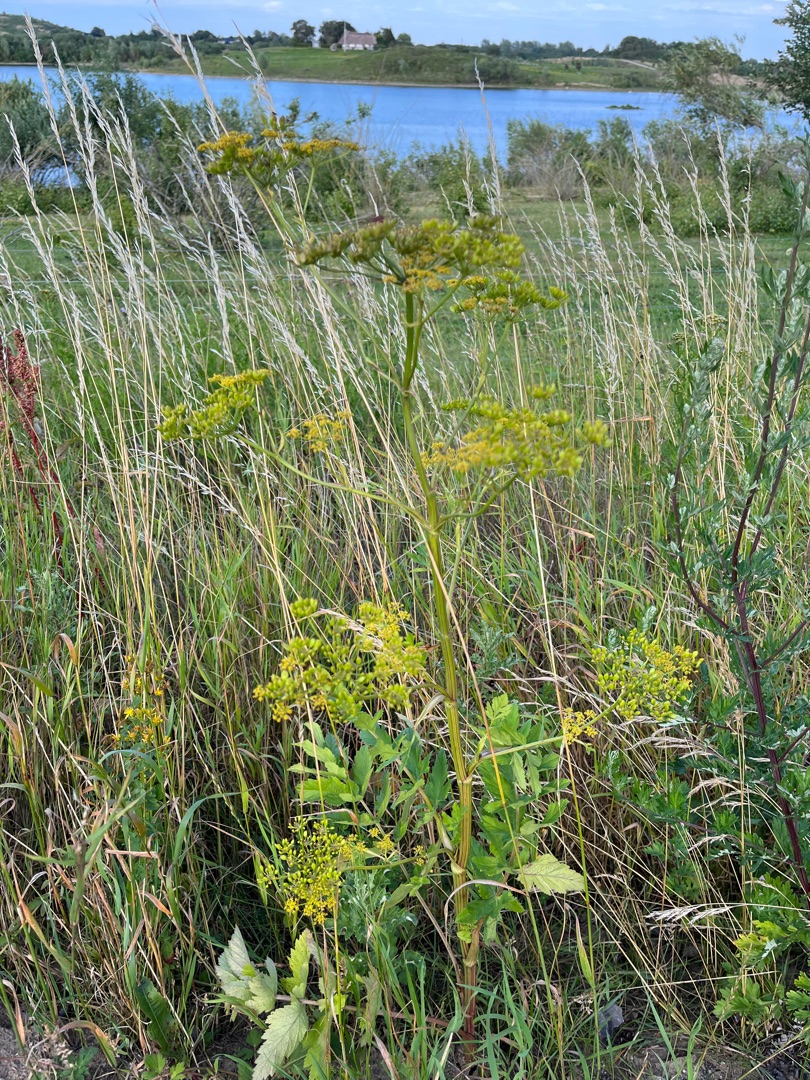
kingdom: Plantae
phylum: Tracheophyta
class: Magnoliopsida
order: Apiales
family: Apiaceae
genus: Pastinaca
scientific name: Pastinaca sativa
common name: Pastinak
